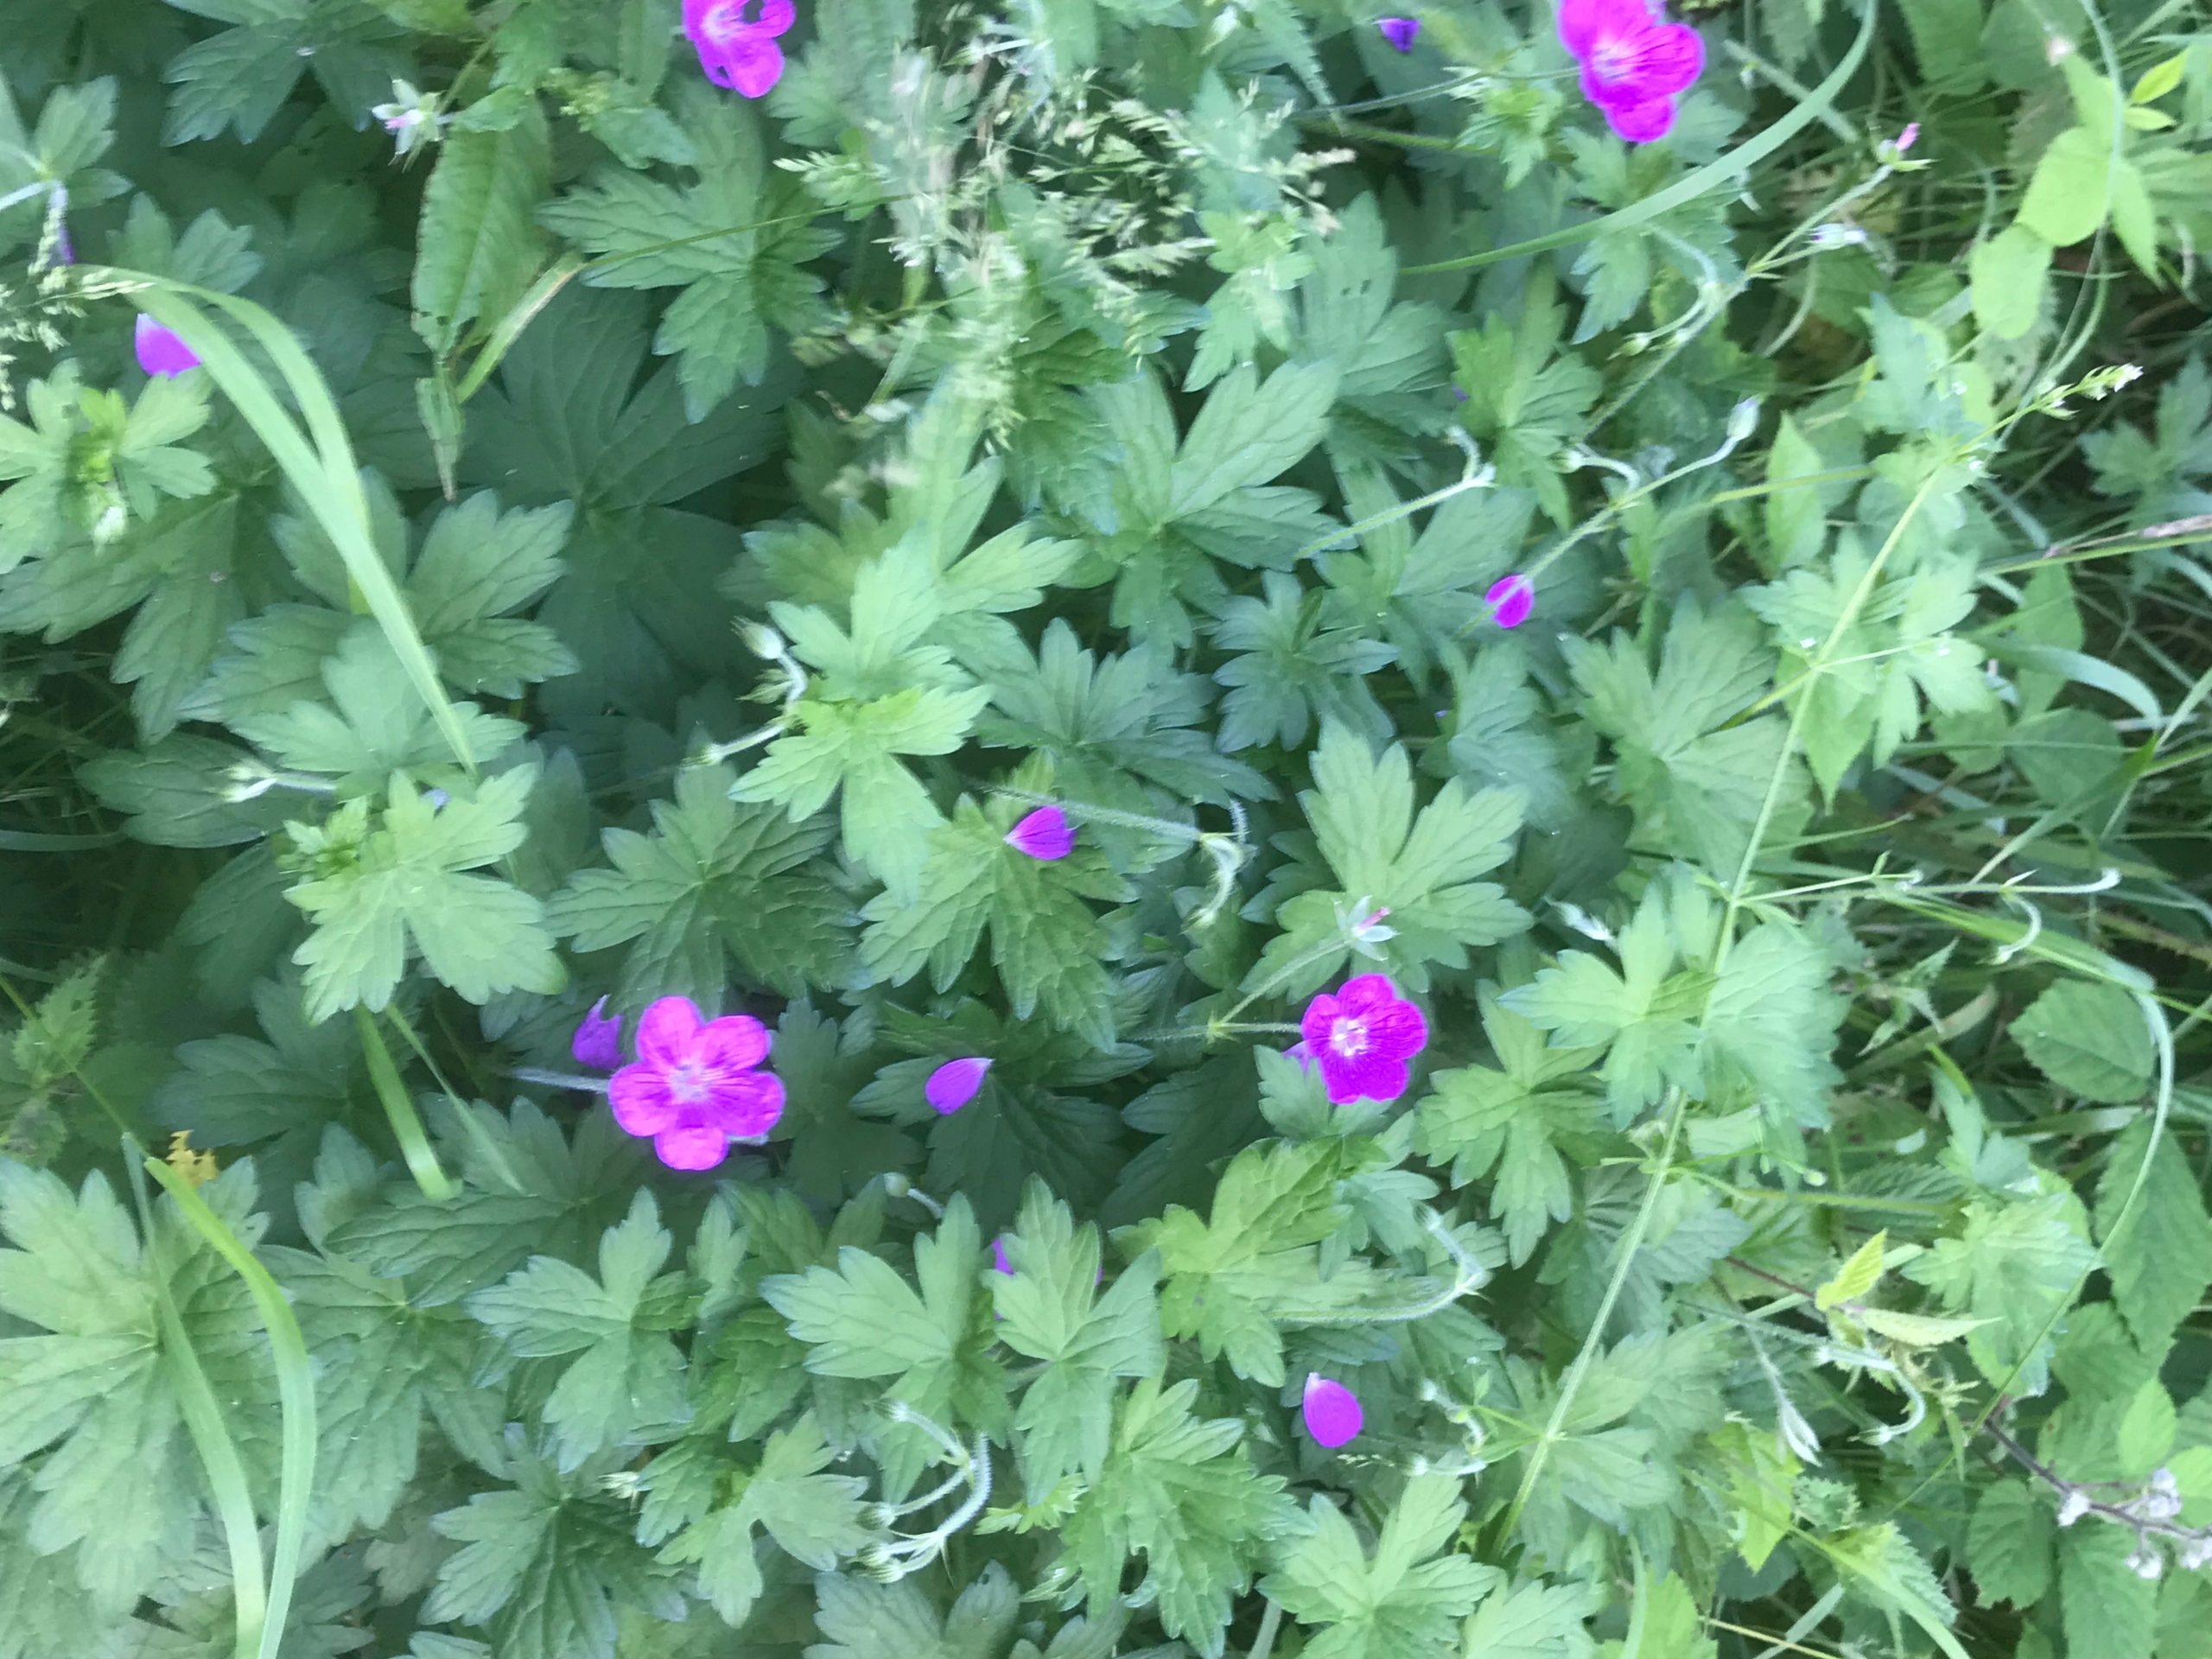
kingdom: Plantae
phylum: Tracheophyta
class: Magnoliopsida
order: Geraniales
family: Geraniaceae
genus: Geranium
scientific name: Geranium palustre
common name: Kær-storkenæb
